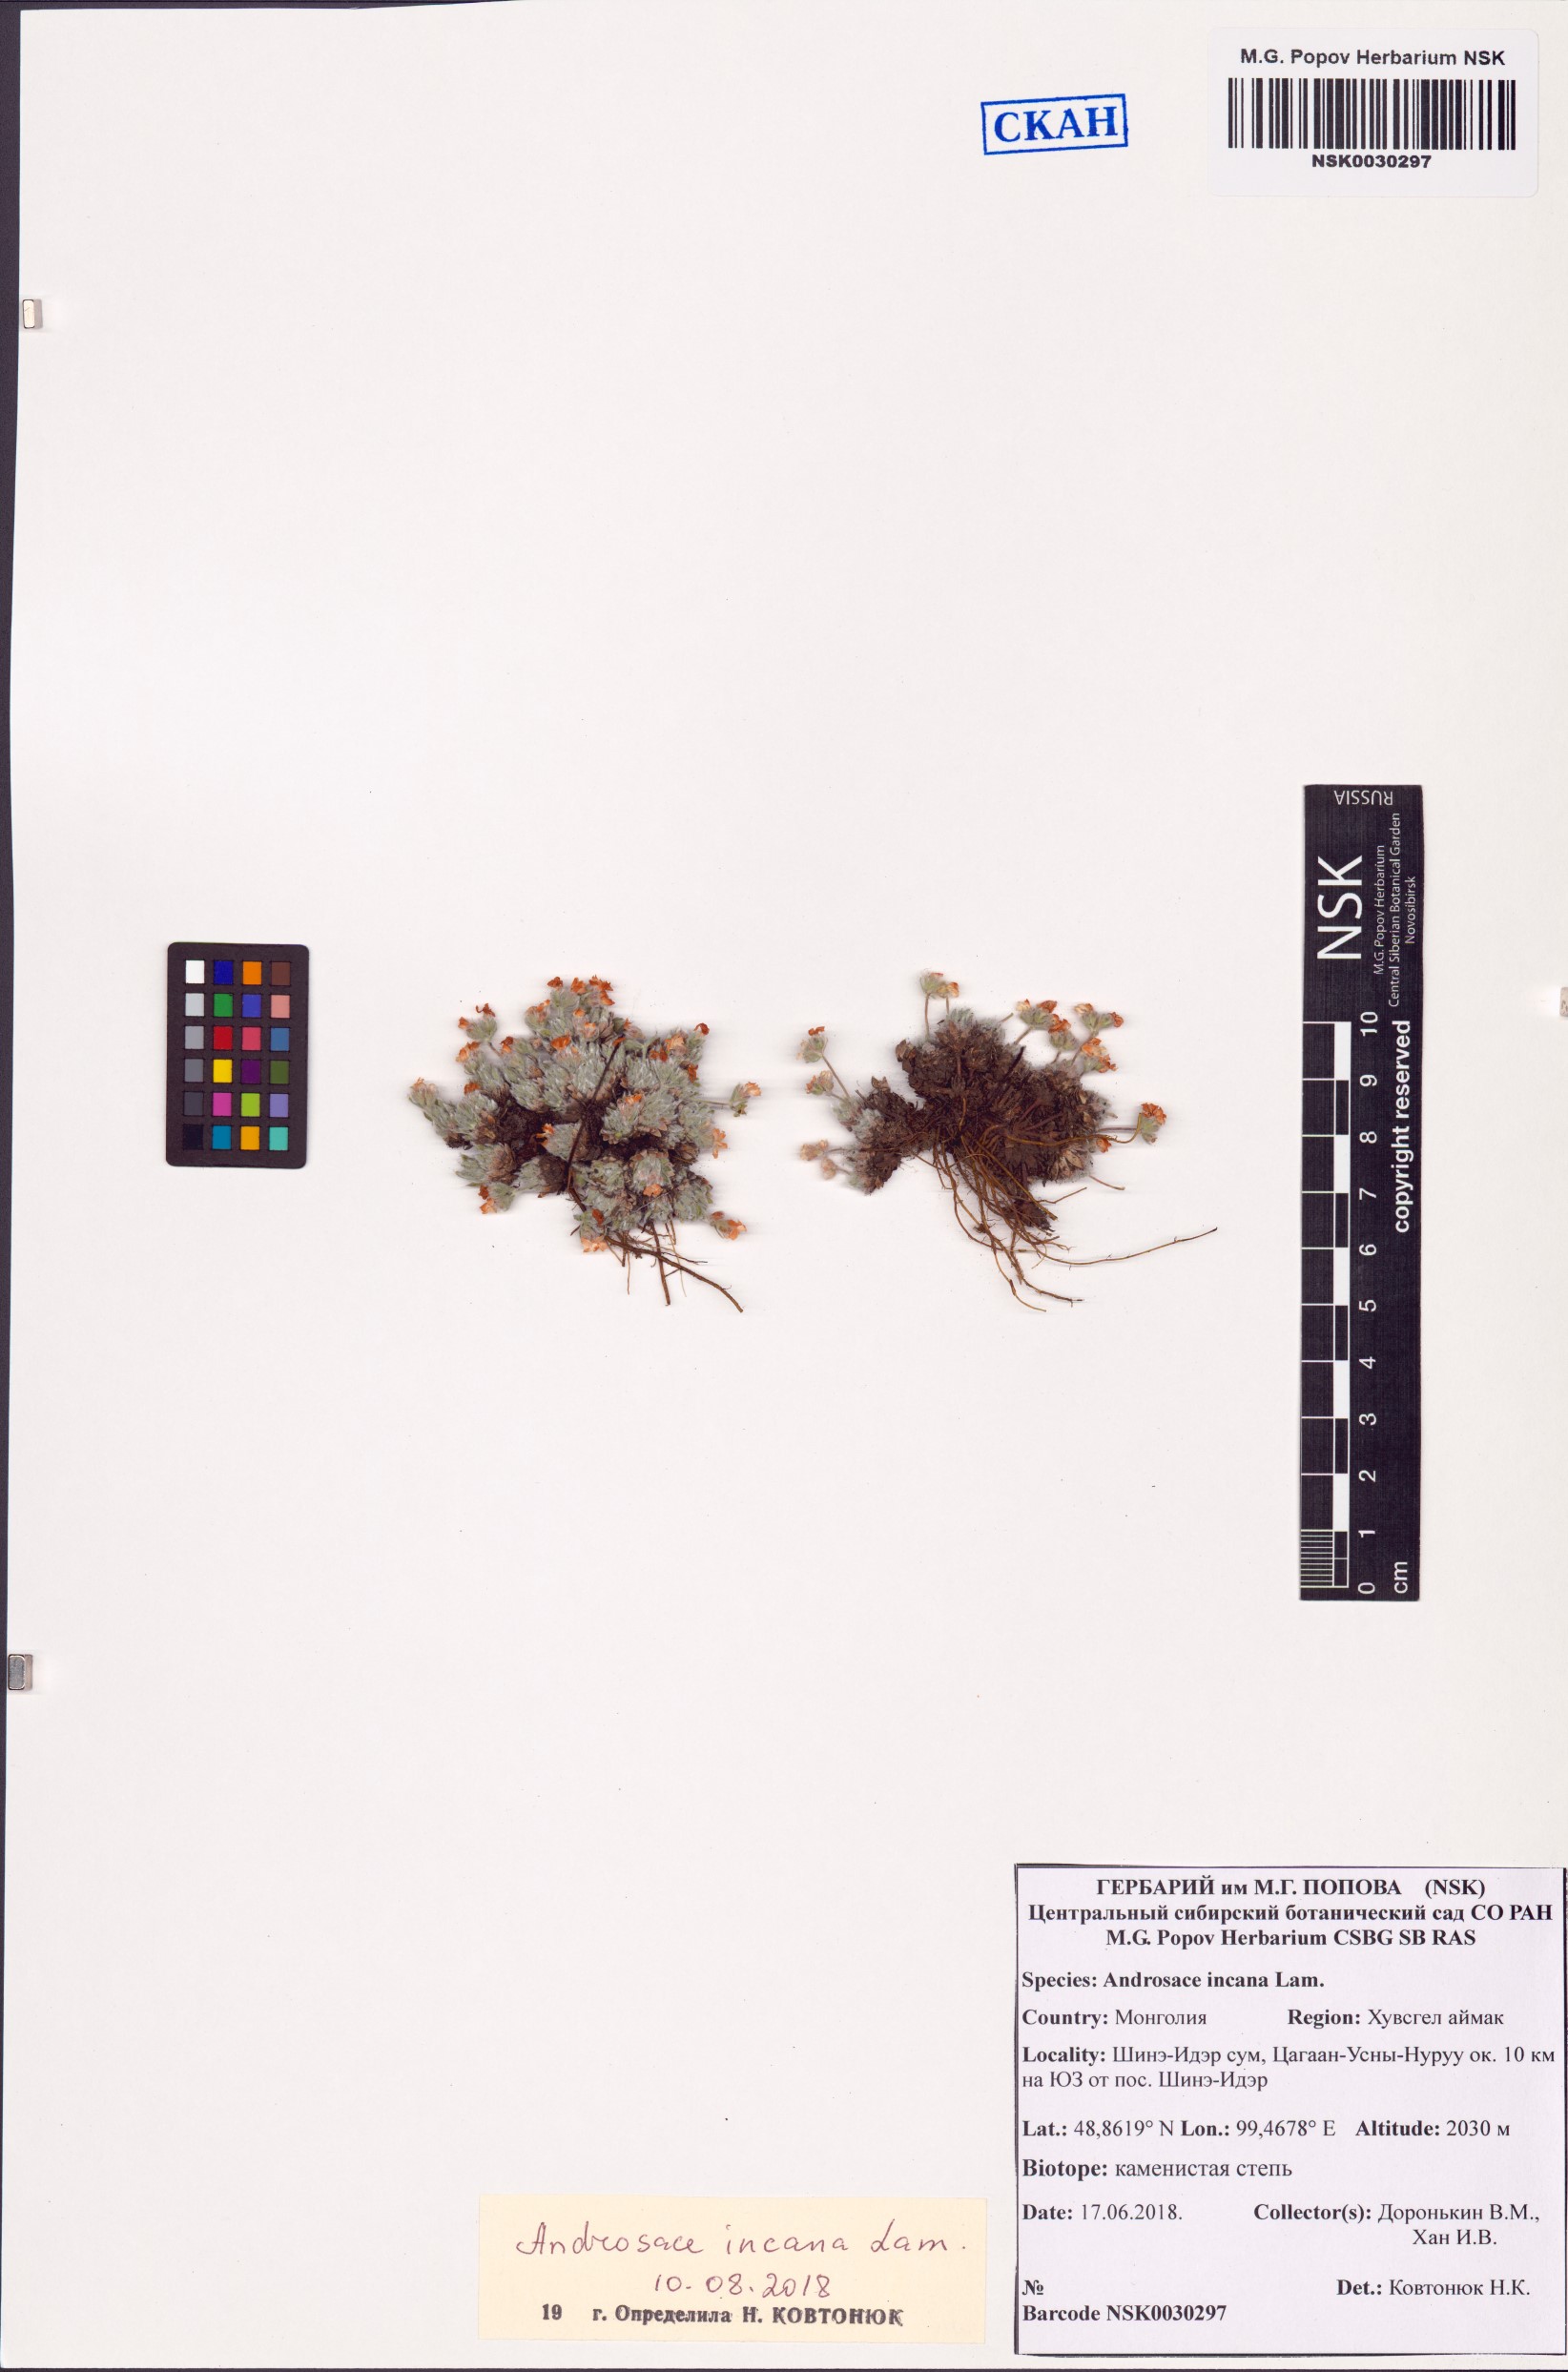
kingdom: Plantae
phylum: Tracheophyta
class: Magnoliopsida
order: Ericales
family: Primulaceae
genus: Androsace
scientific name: Androsace incana
